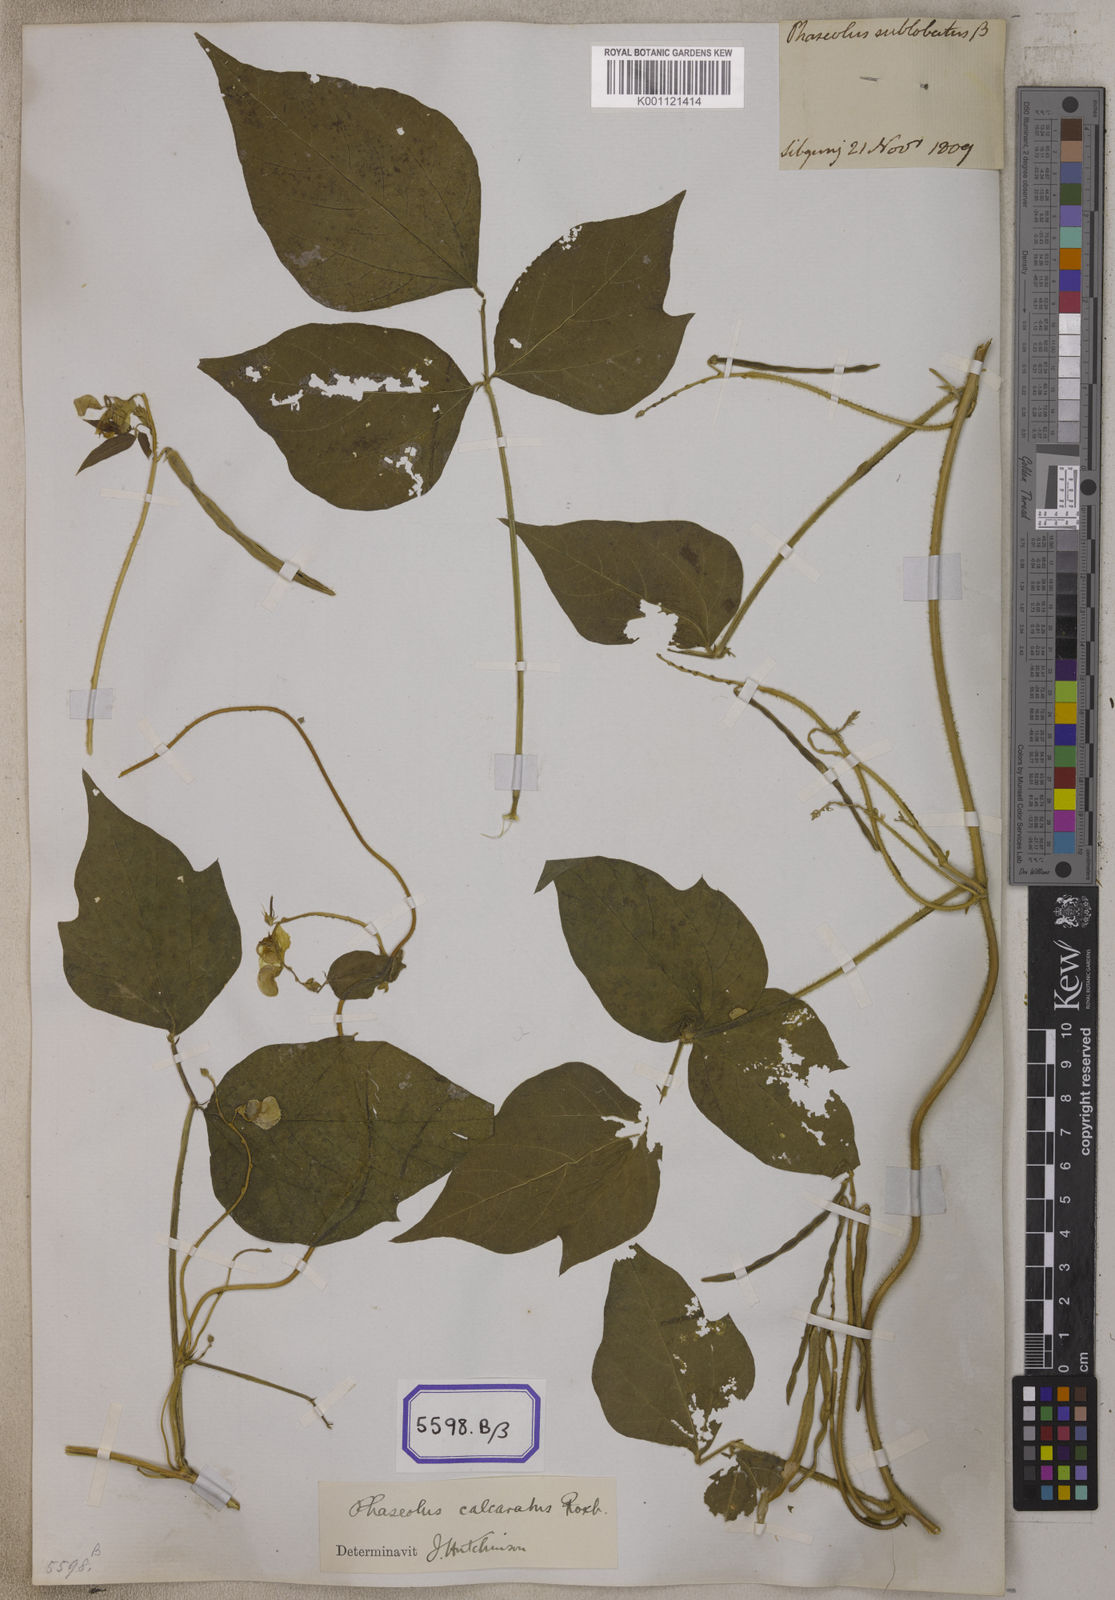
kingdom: Plantae
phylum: Tracheophyta
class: Magnoliopsida
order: Fabales
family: Fabaceae
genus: Phaseolus
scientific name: Phaseolus
